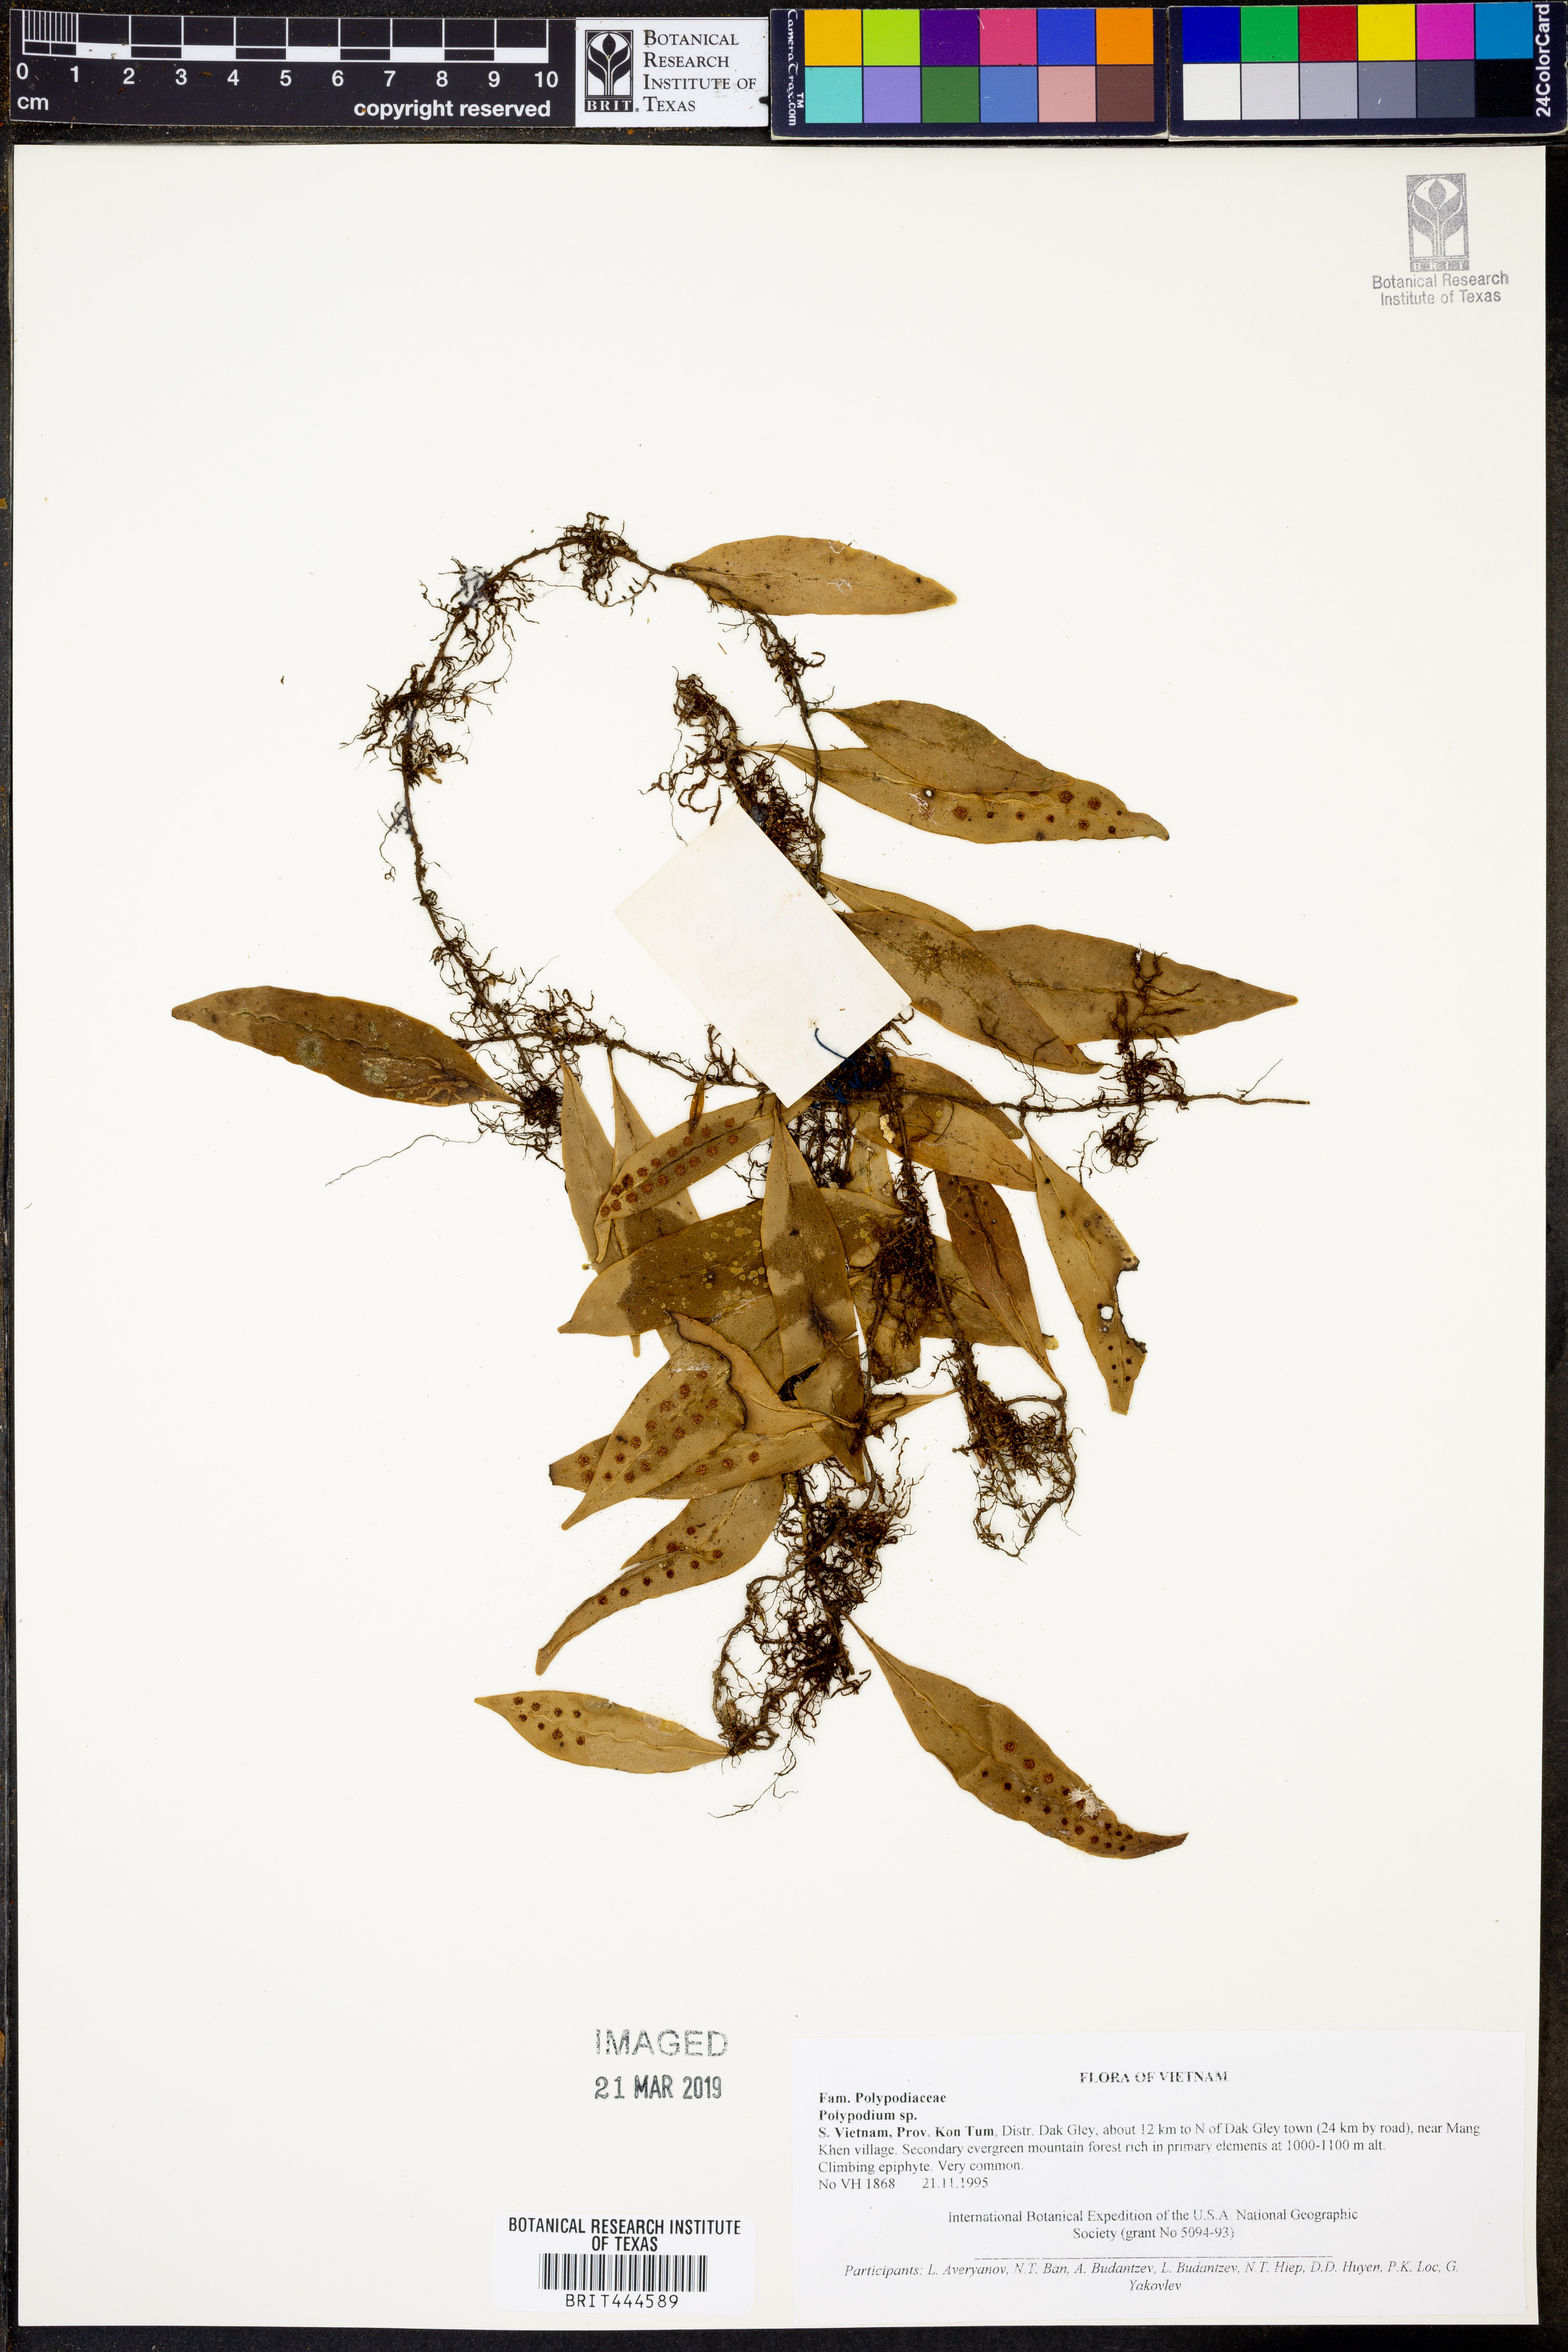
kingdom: Plantae
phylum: Tracheophyta
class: Polypodiopsida
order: Polypodiales
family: Polypodiaceae
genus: Polypodium
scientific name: Polypodium
